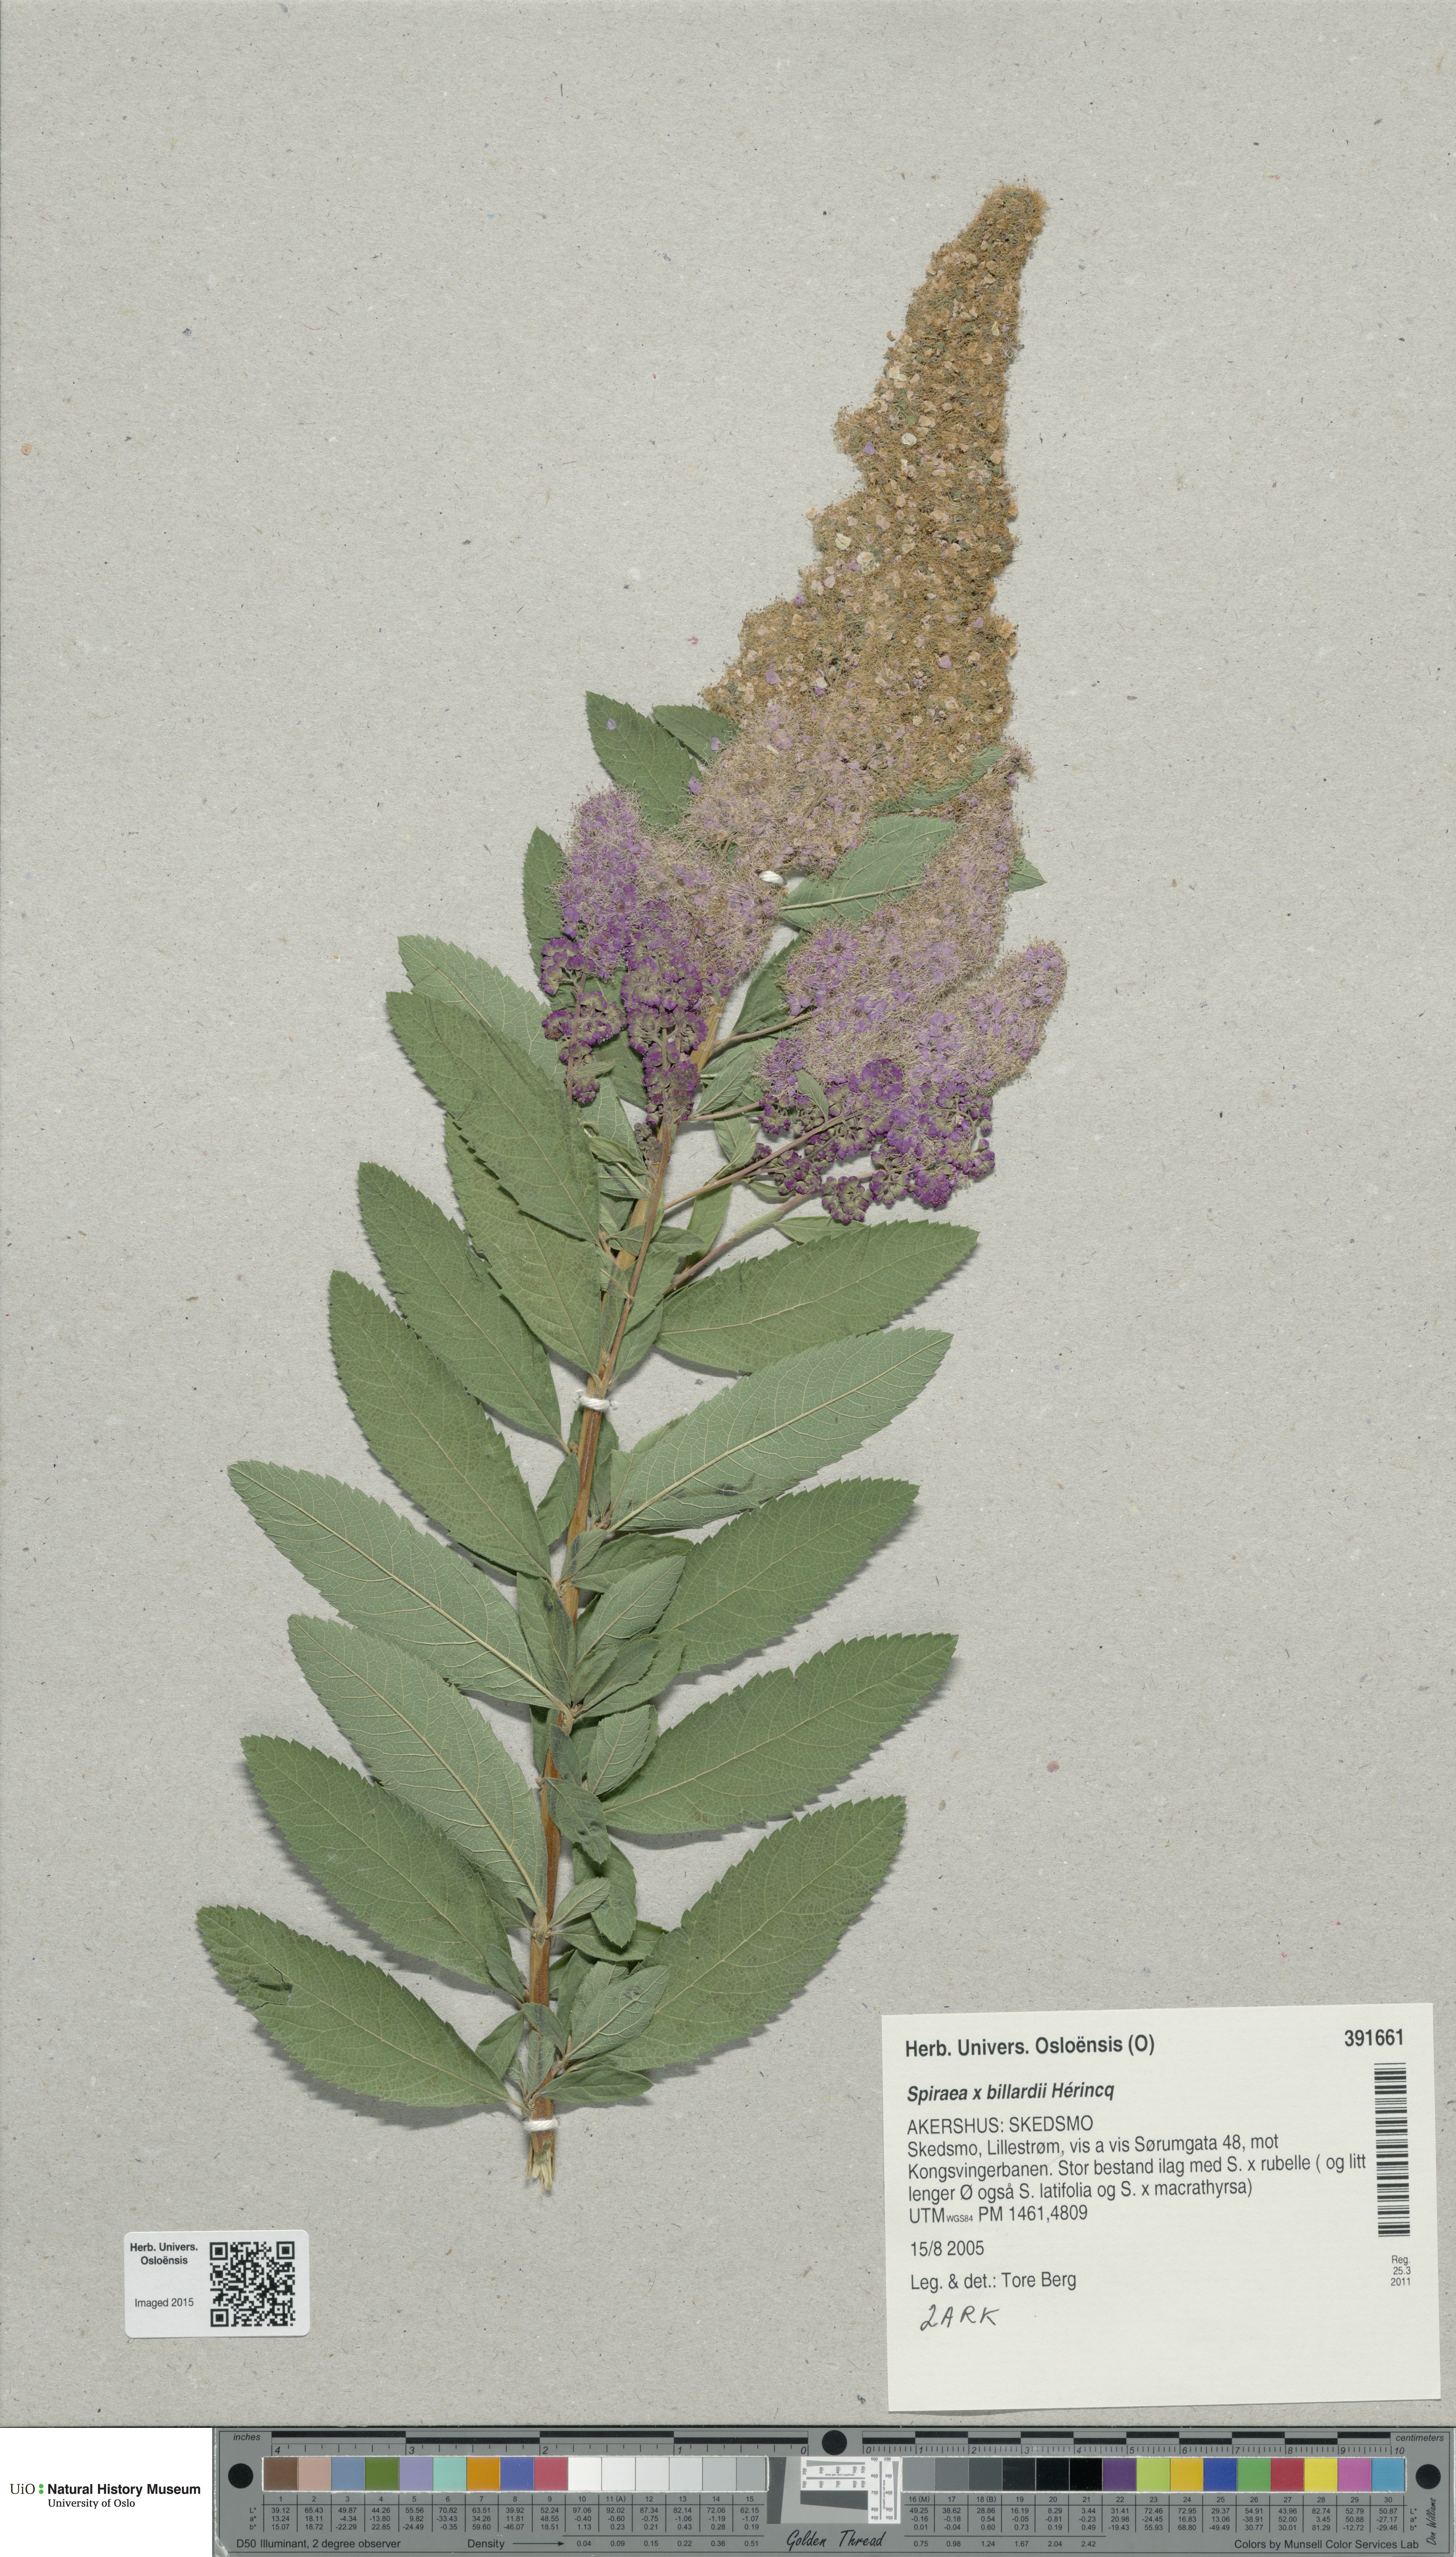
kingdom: Plantae
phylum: Tracheophyta
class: Magnoliopsida
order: Rosales
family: Rosaceae
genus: Spiraea
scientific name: Spiraea billardii
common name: Billard's bridewort
